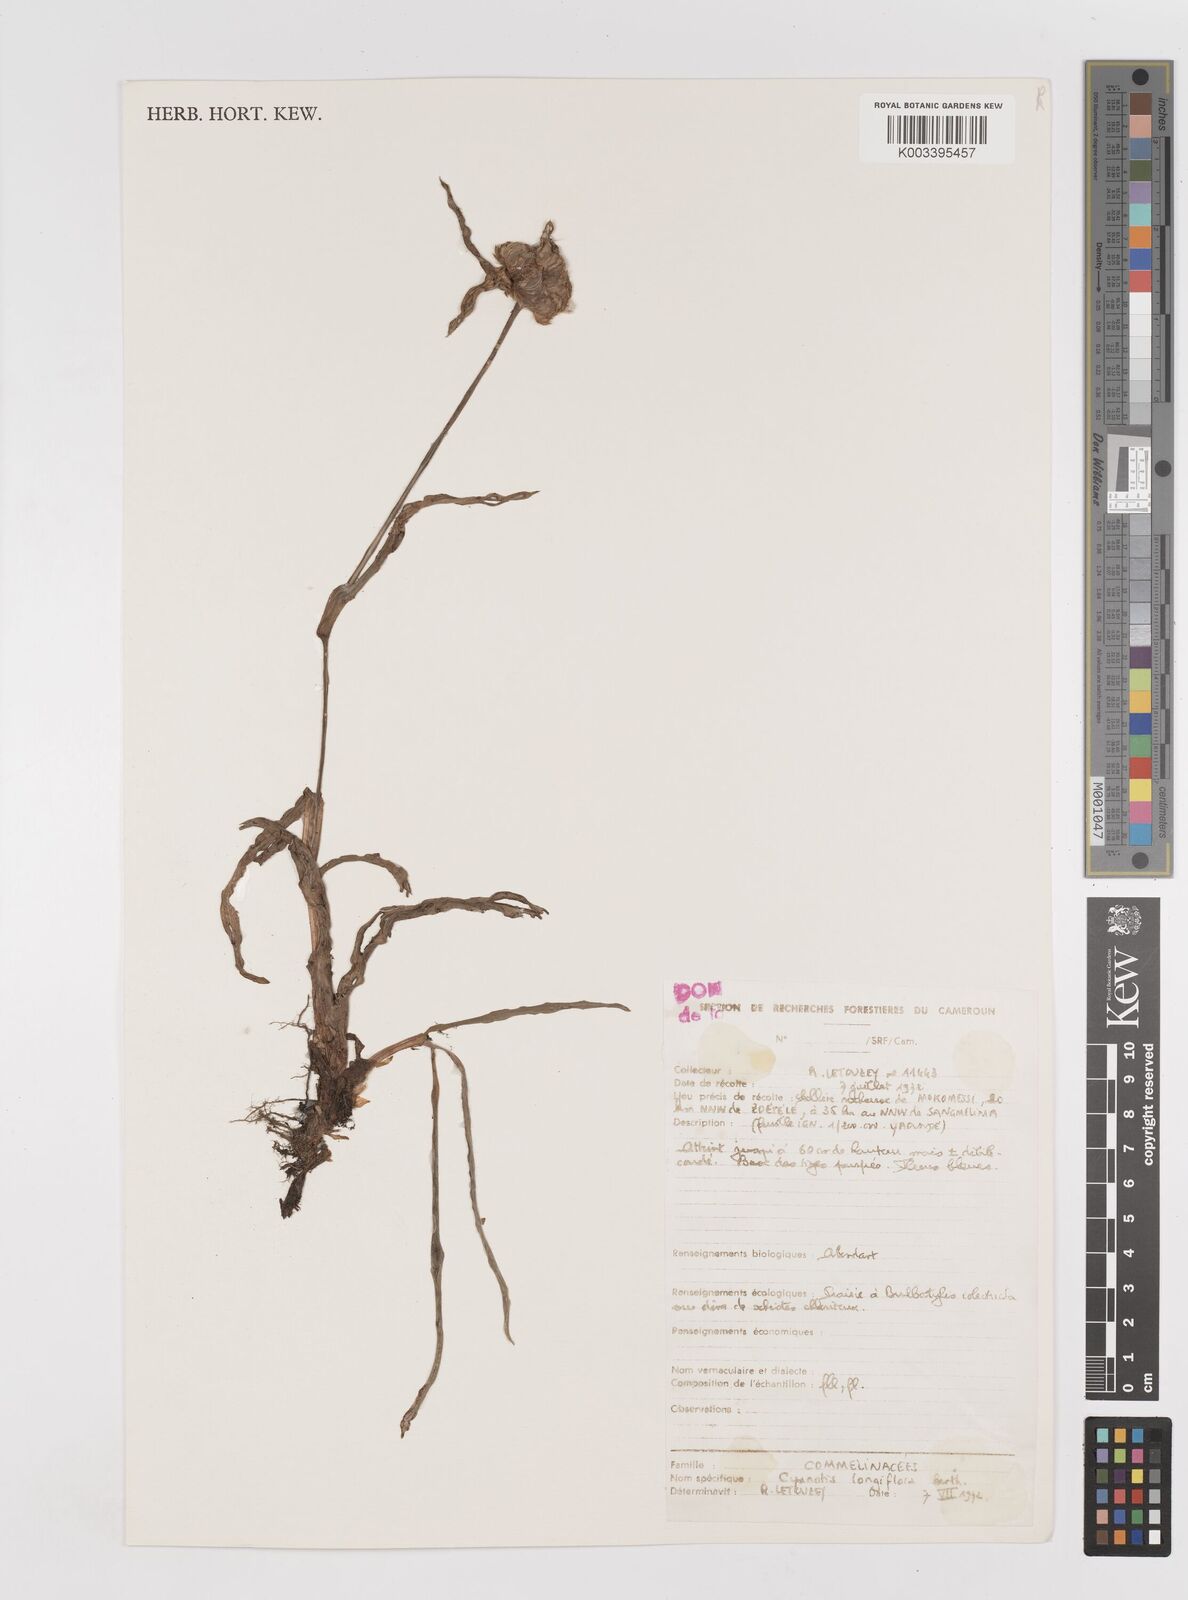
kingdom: Plantae
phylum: Tracheophyta
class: Liliopsida
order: Commelinales
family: Commelinaceae
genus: Cyanotis
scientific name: Cyanotis longifolia
